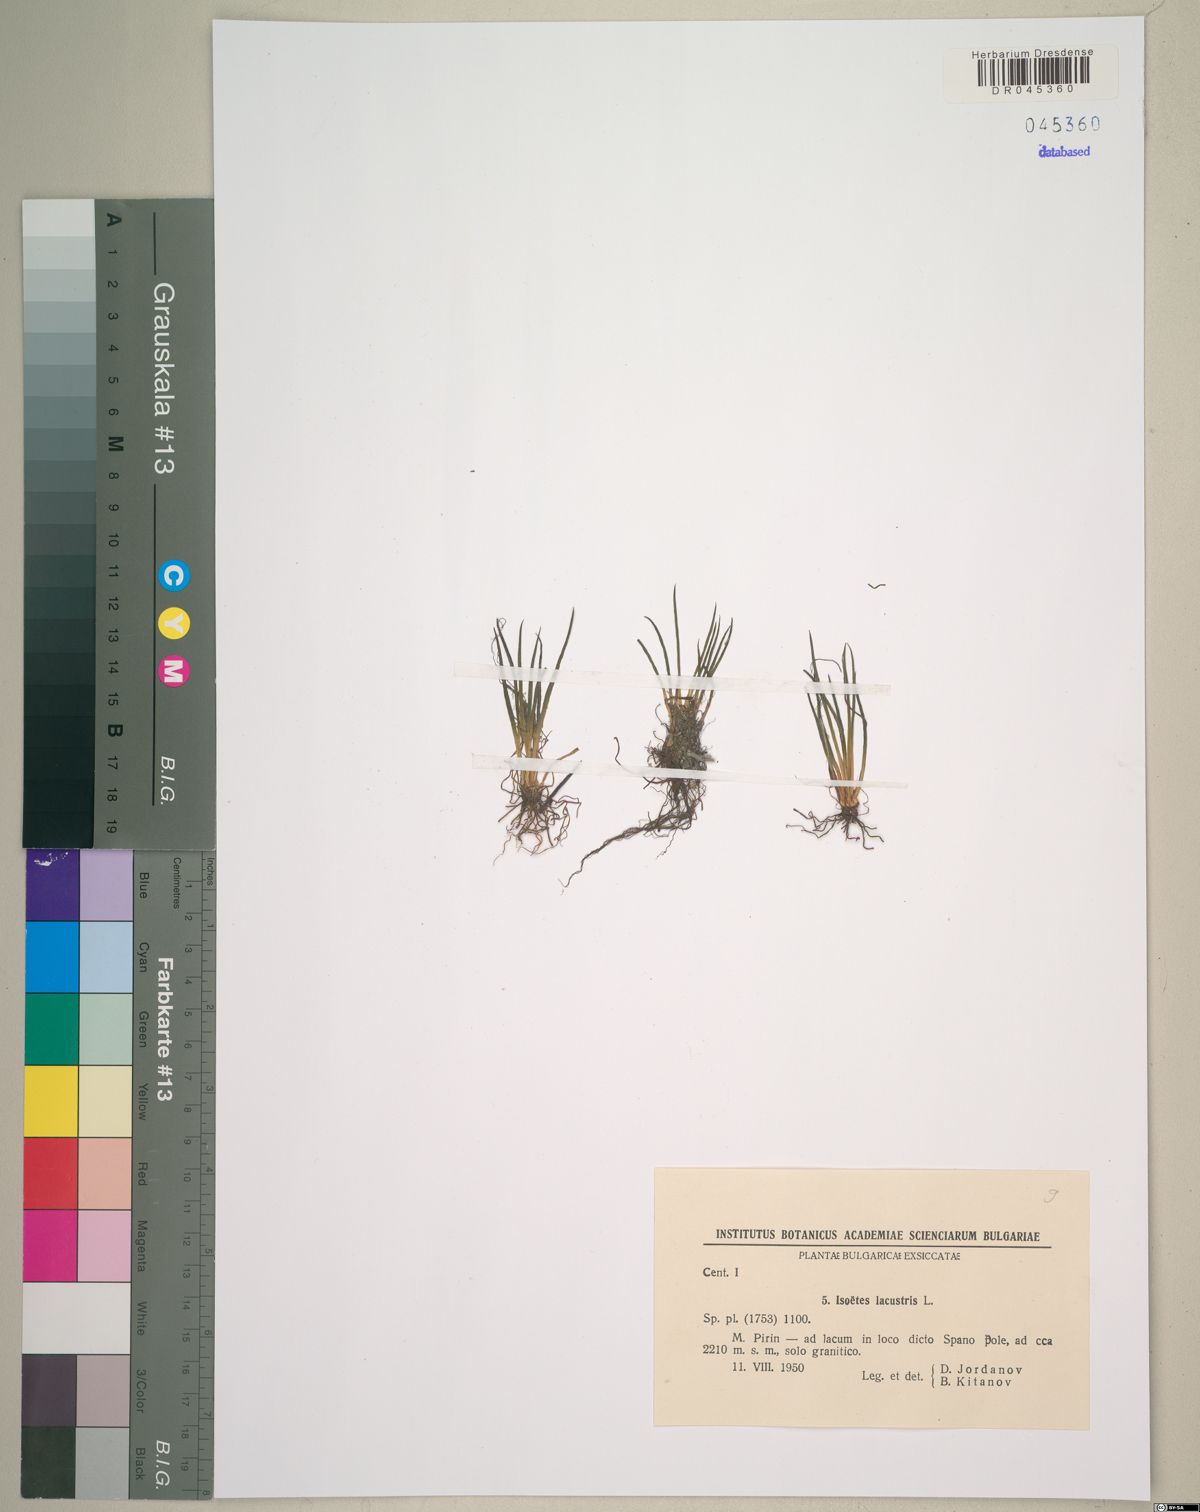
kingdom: Plantae
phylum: Tracheophyta
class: Lycopodiopsida
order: Isoetales
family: Isoetaceae
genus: Isoetes
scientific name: Isoetes lacustris
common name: Common quillwort
